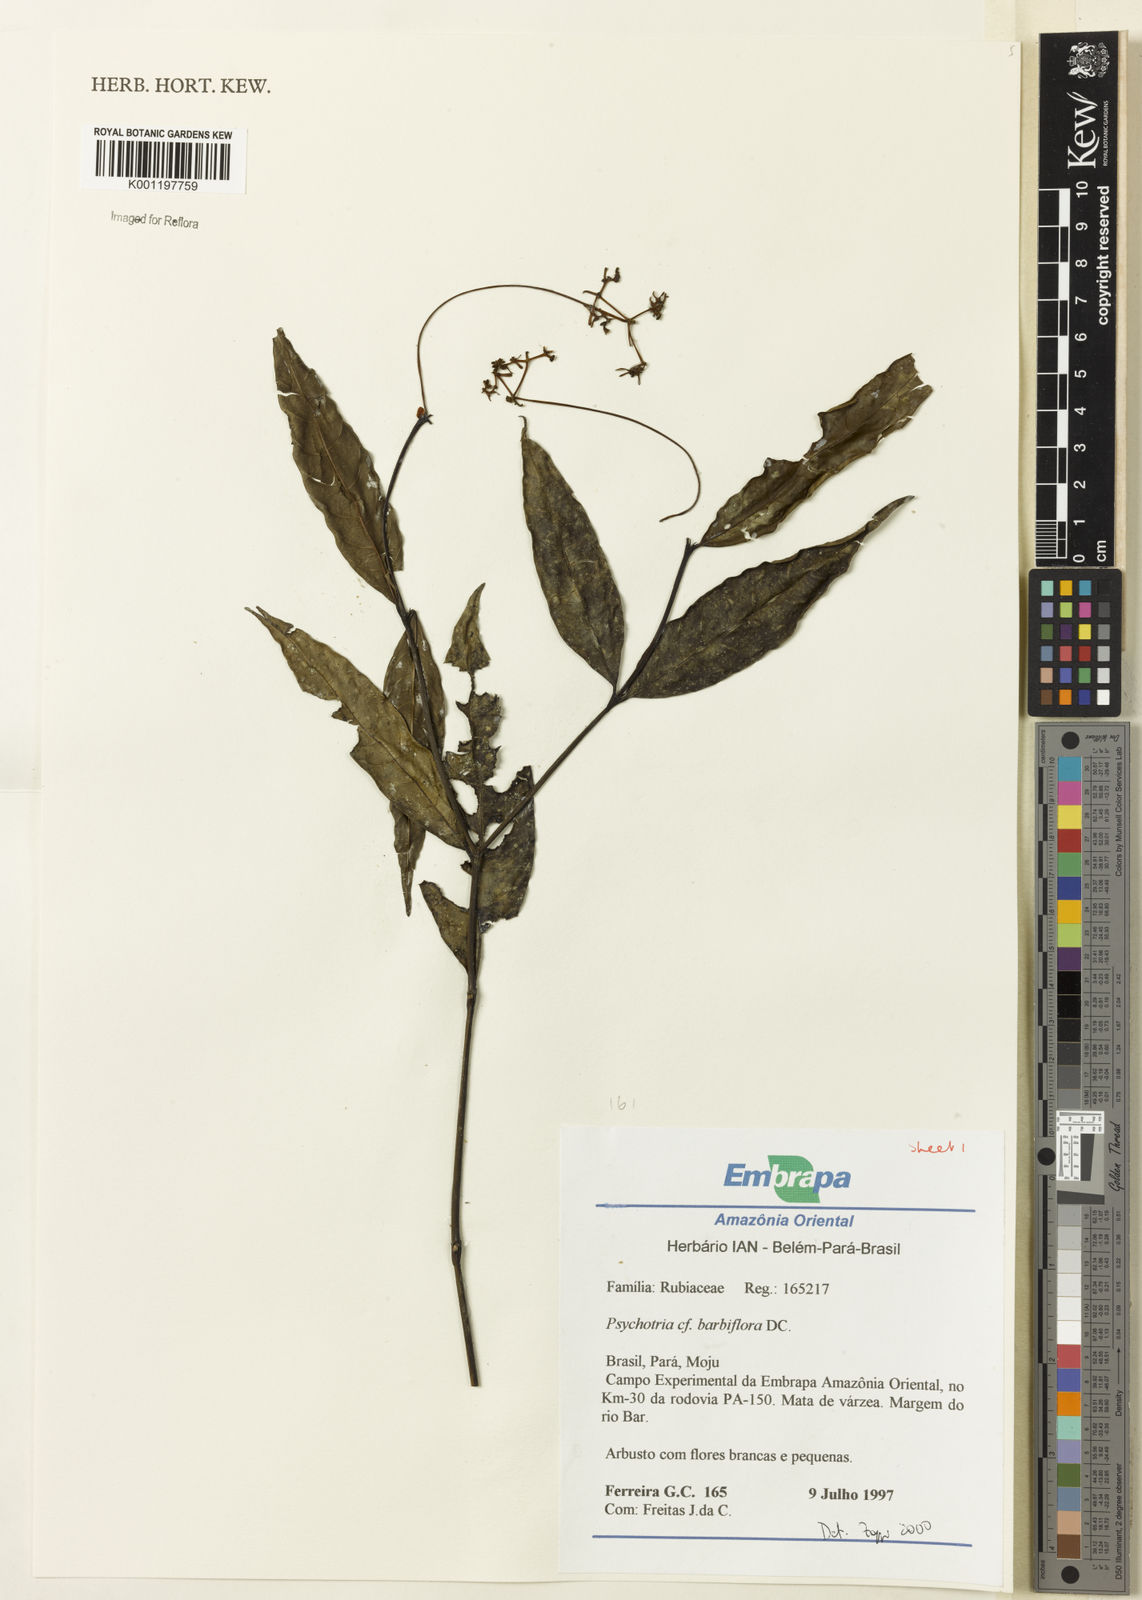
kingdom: Plantae
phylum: Tracheophyta
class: Magnoliopsida
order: Gentianales
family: Rubiaceae
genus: Palicourea
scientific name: Palicourea hoffmannseggiana
